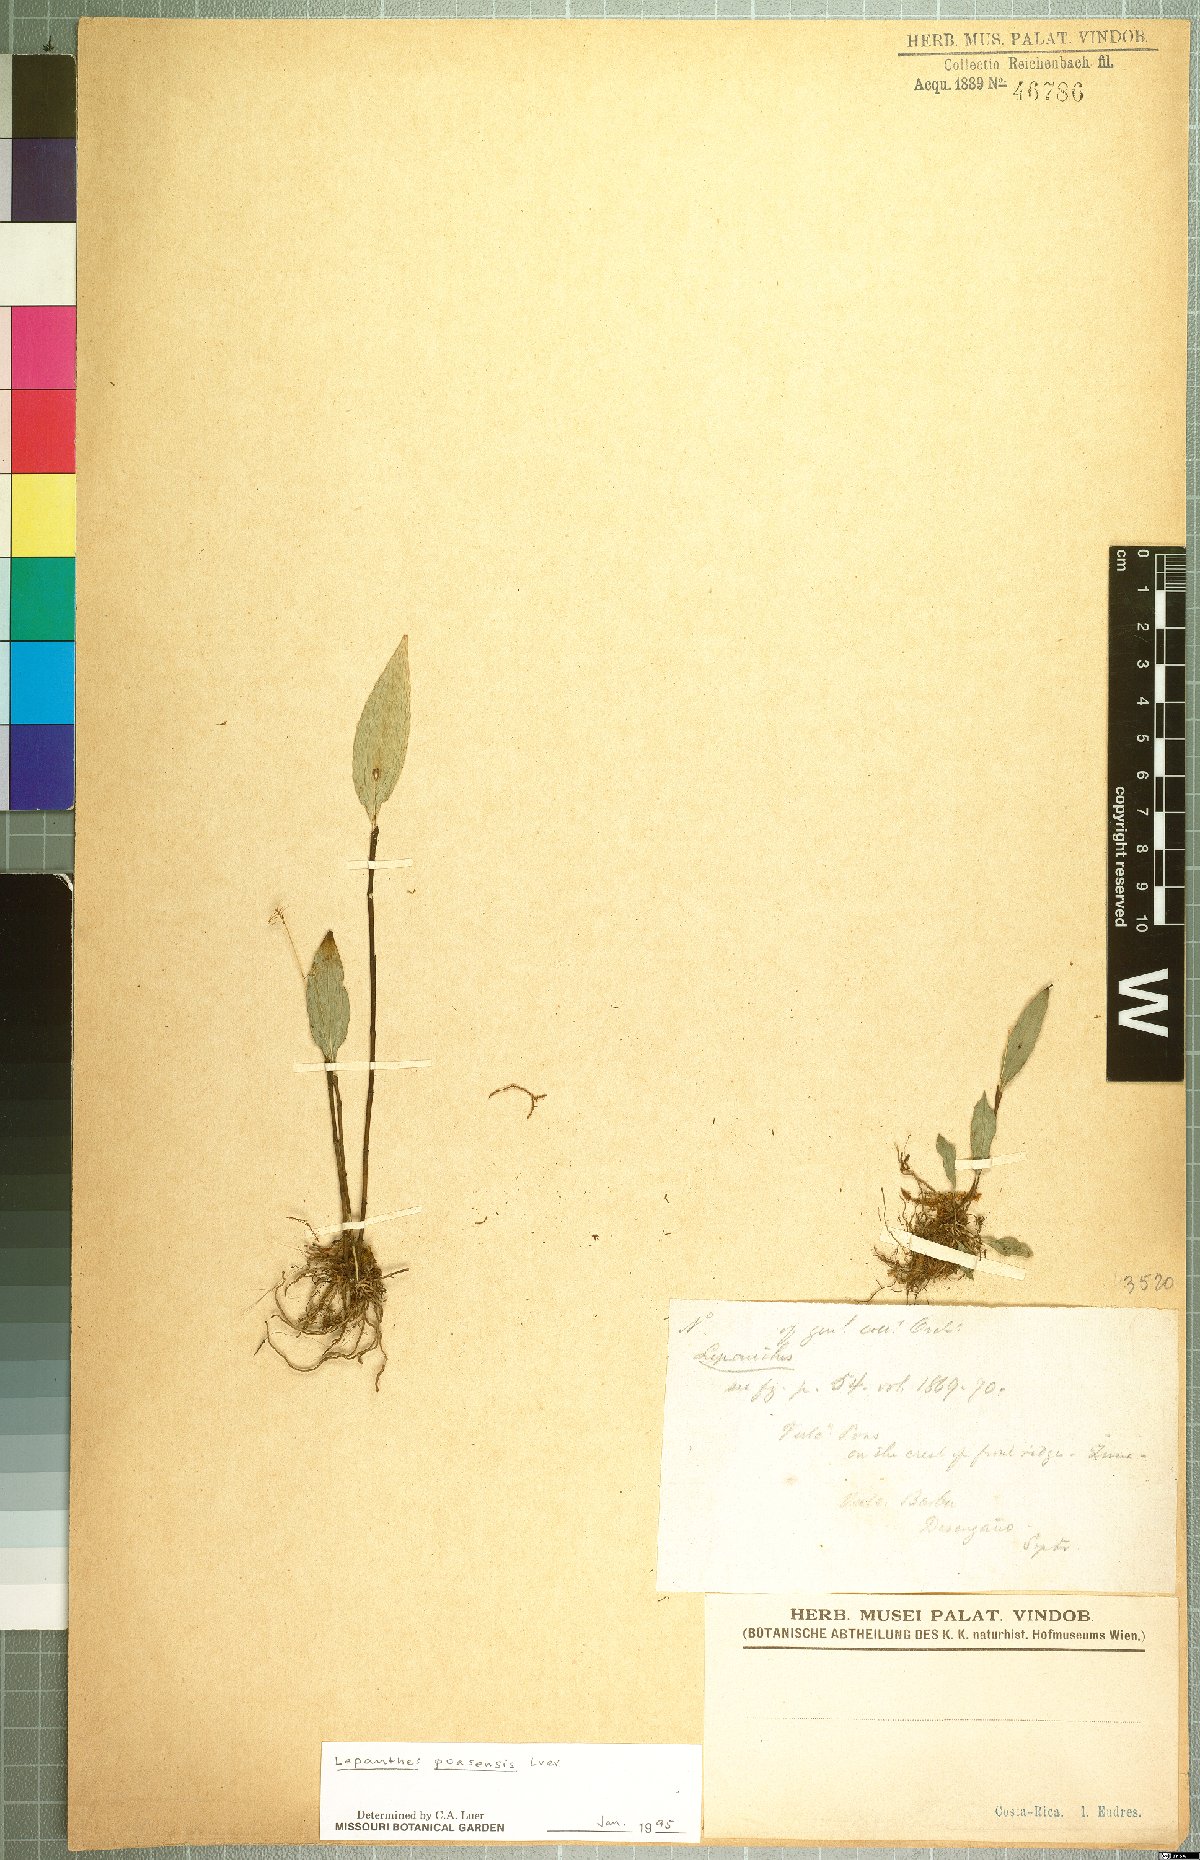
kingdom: Plantae
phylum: Tracheophyta
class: Liliopsida
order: Asparagales
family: Orchidaceae
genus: Lepanthes
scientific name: Lepanthes poasensis
